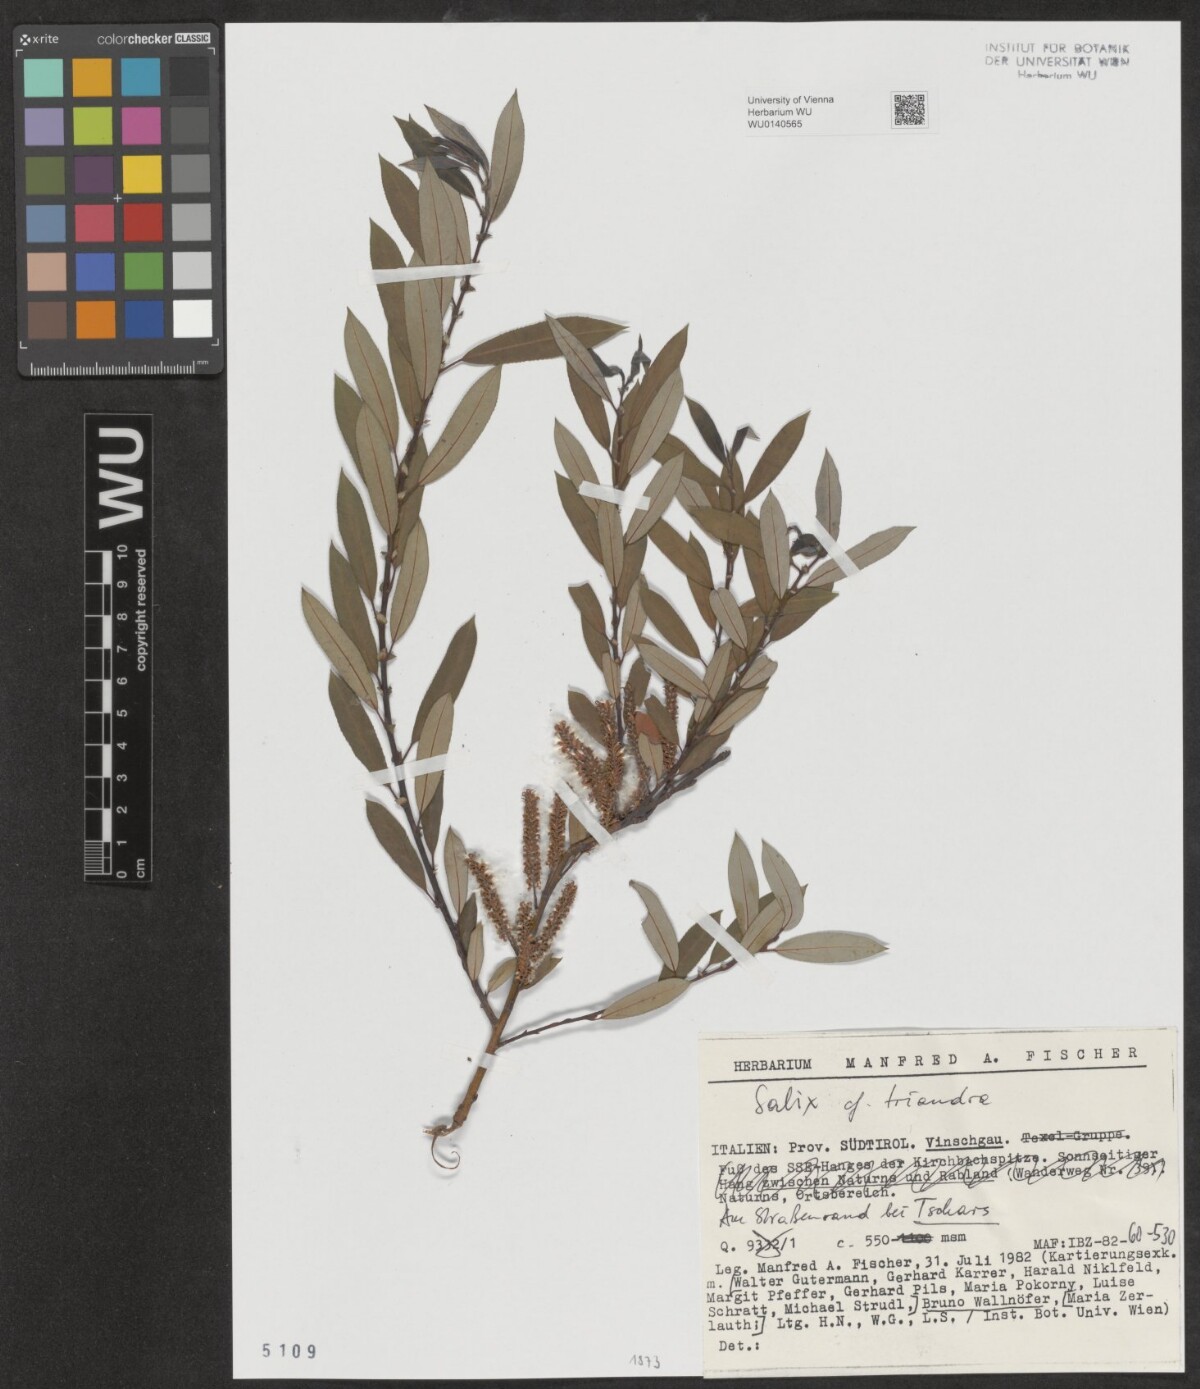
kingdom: Plantae
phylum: Tracheophyta
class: Magnoliopsida
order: Malpighiales
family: Salicaceae
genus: Salix
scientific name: Salix triandra
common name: Almond willow
